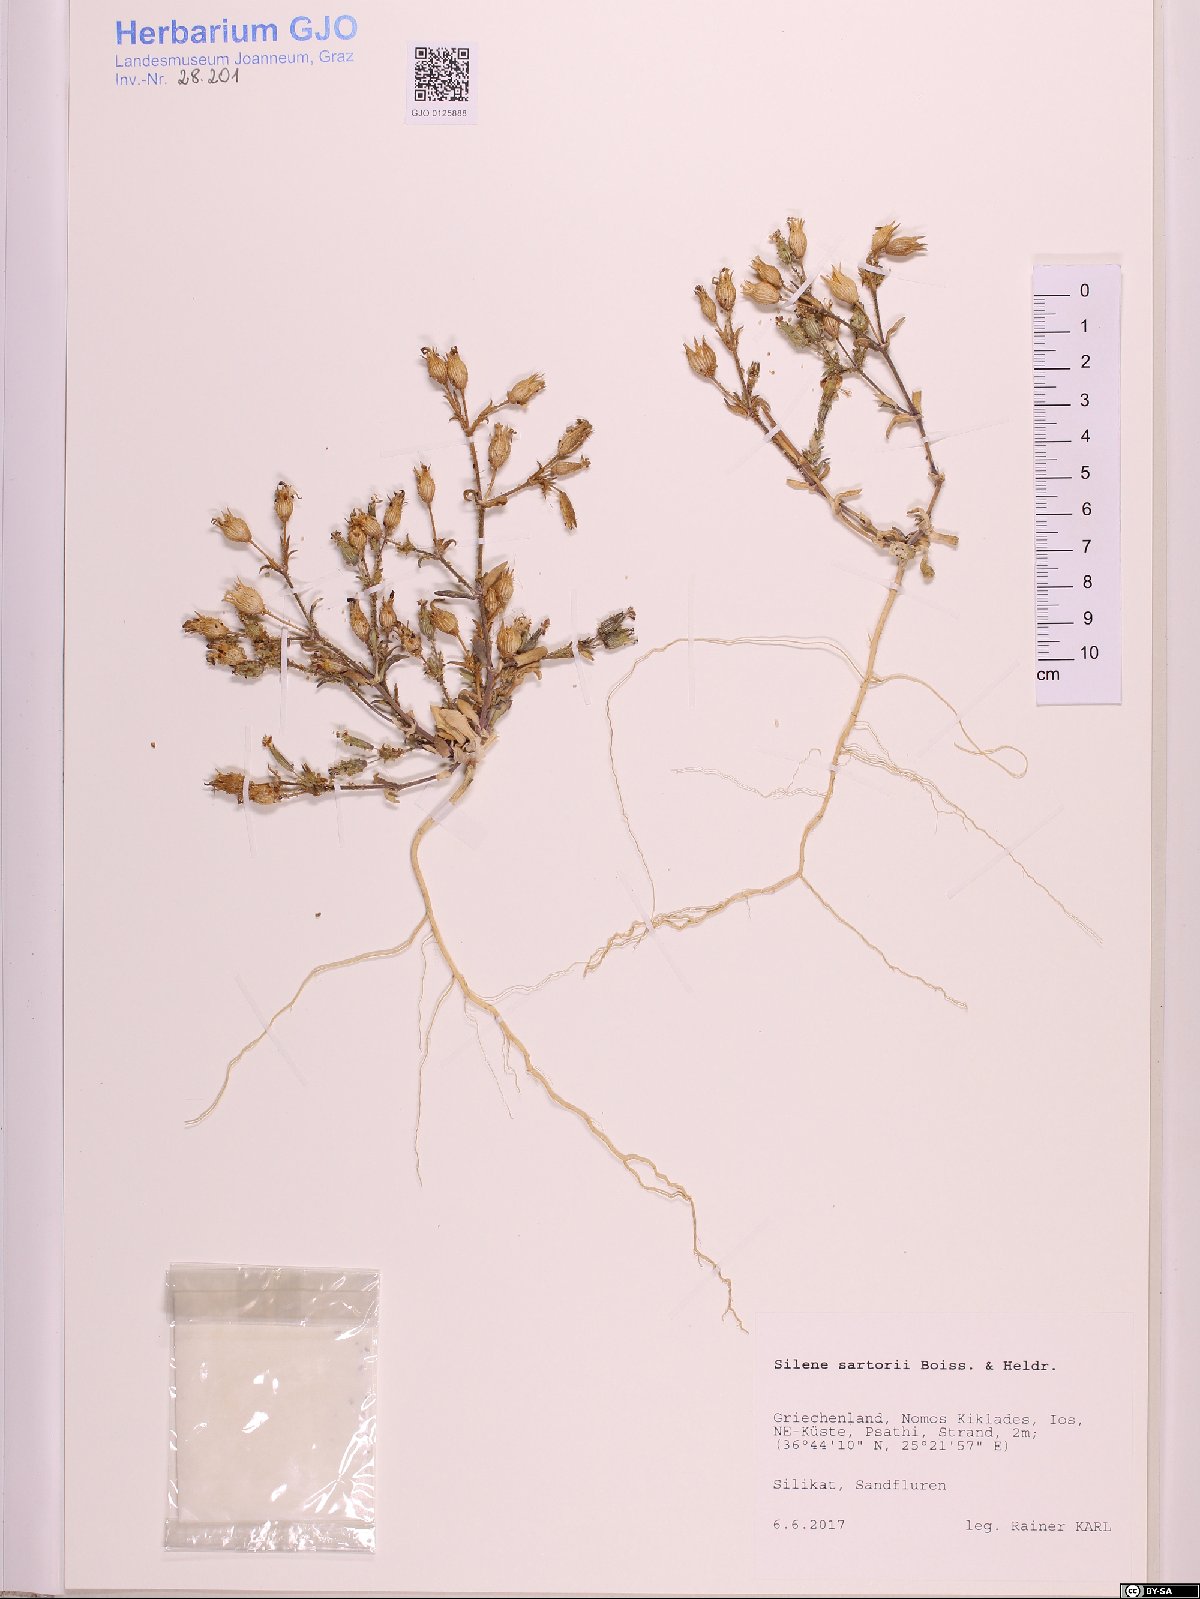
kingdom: Plantae
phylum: Tracheophyta
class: Magnoliopsida
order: Caryophyllales
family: Caryophyllaceae
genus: Silene
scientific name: Silene sartorii
